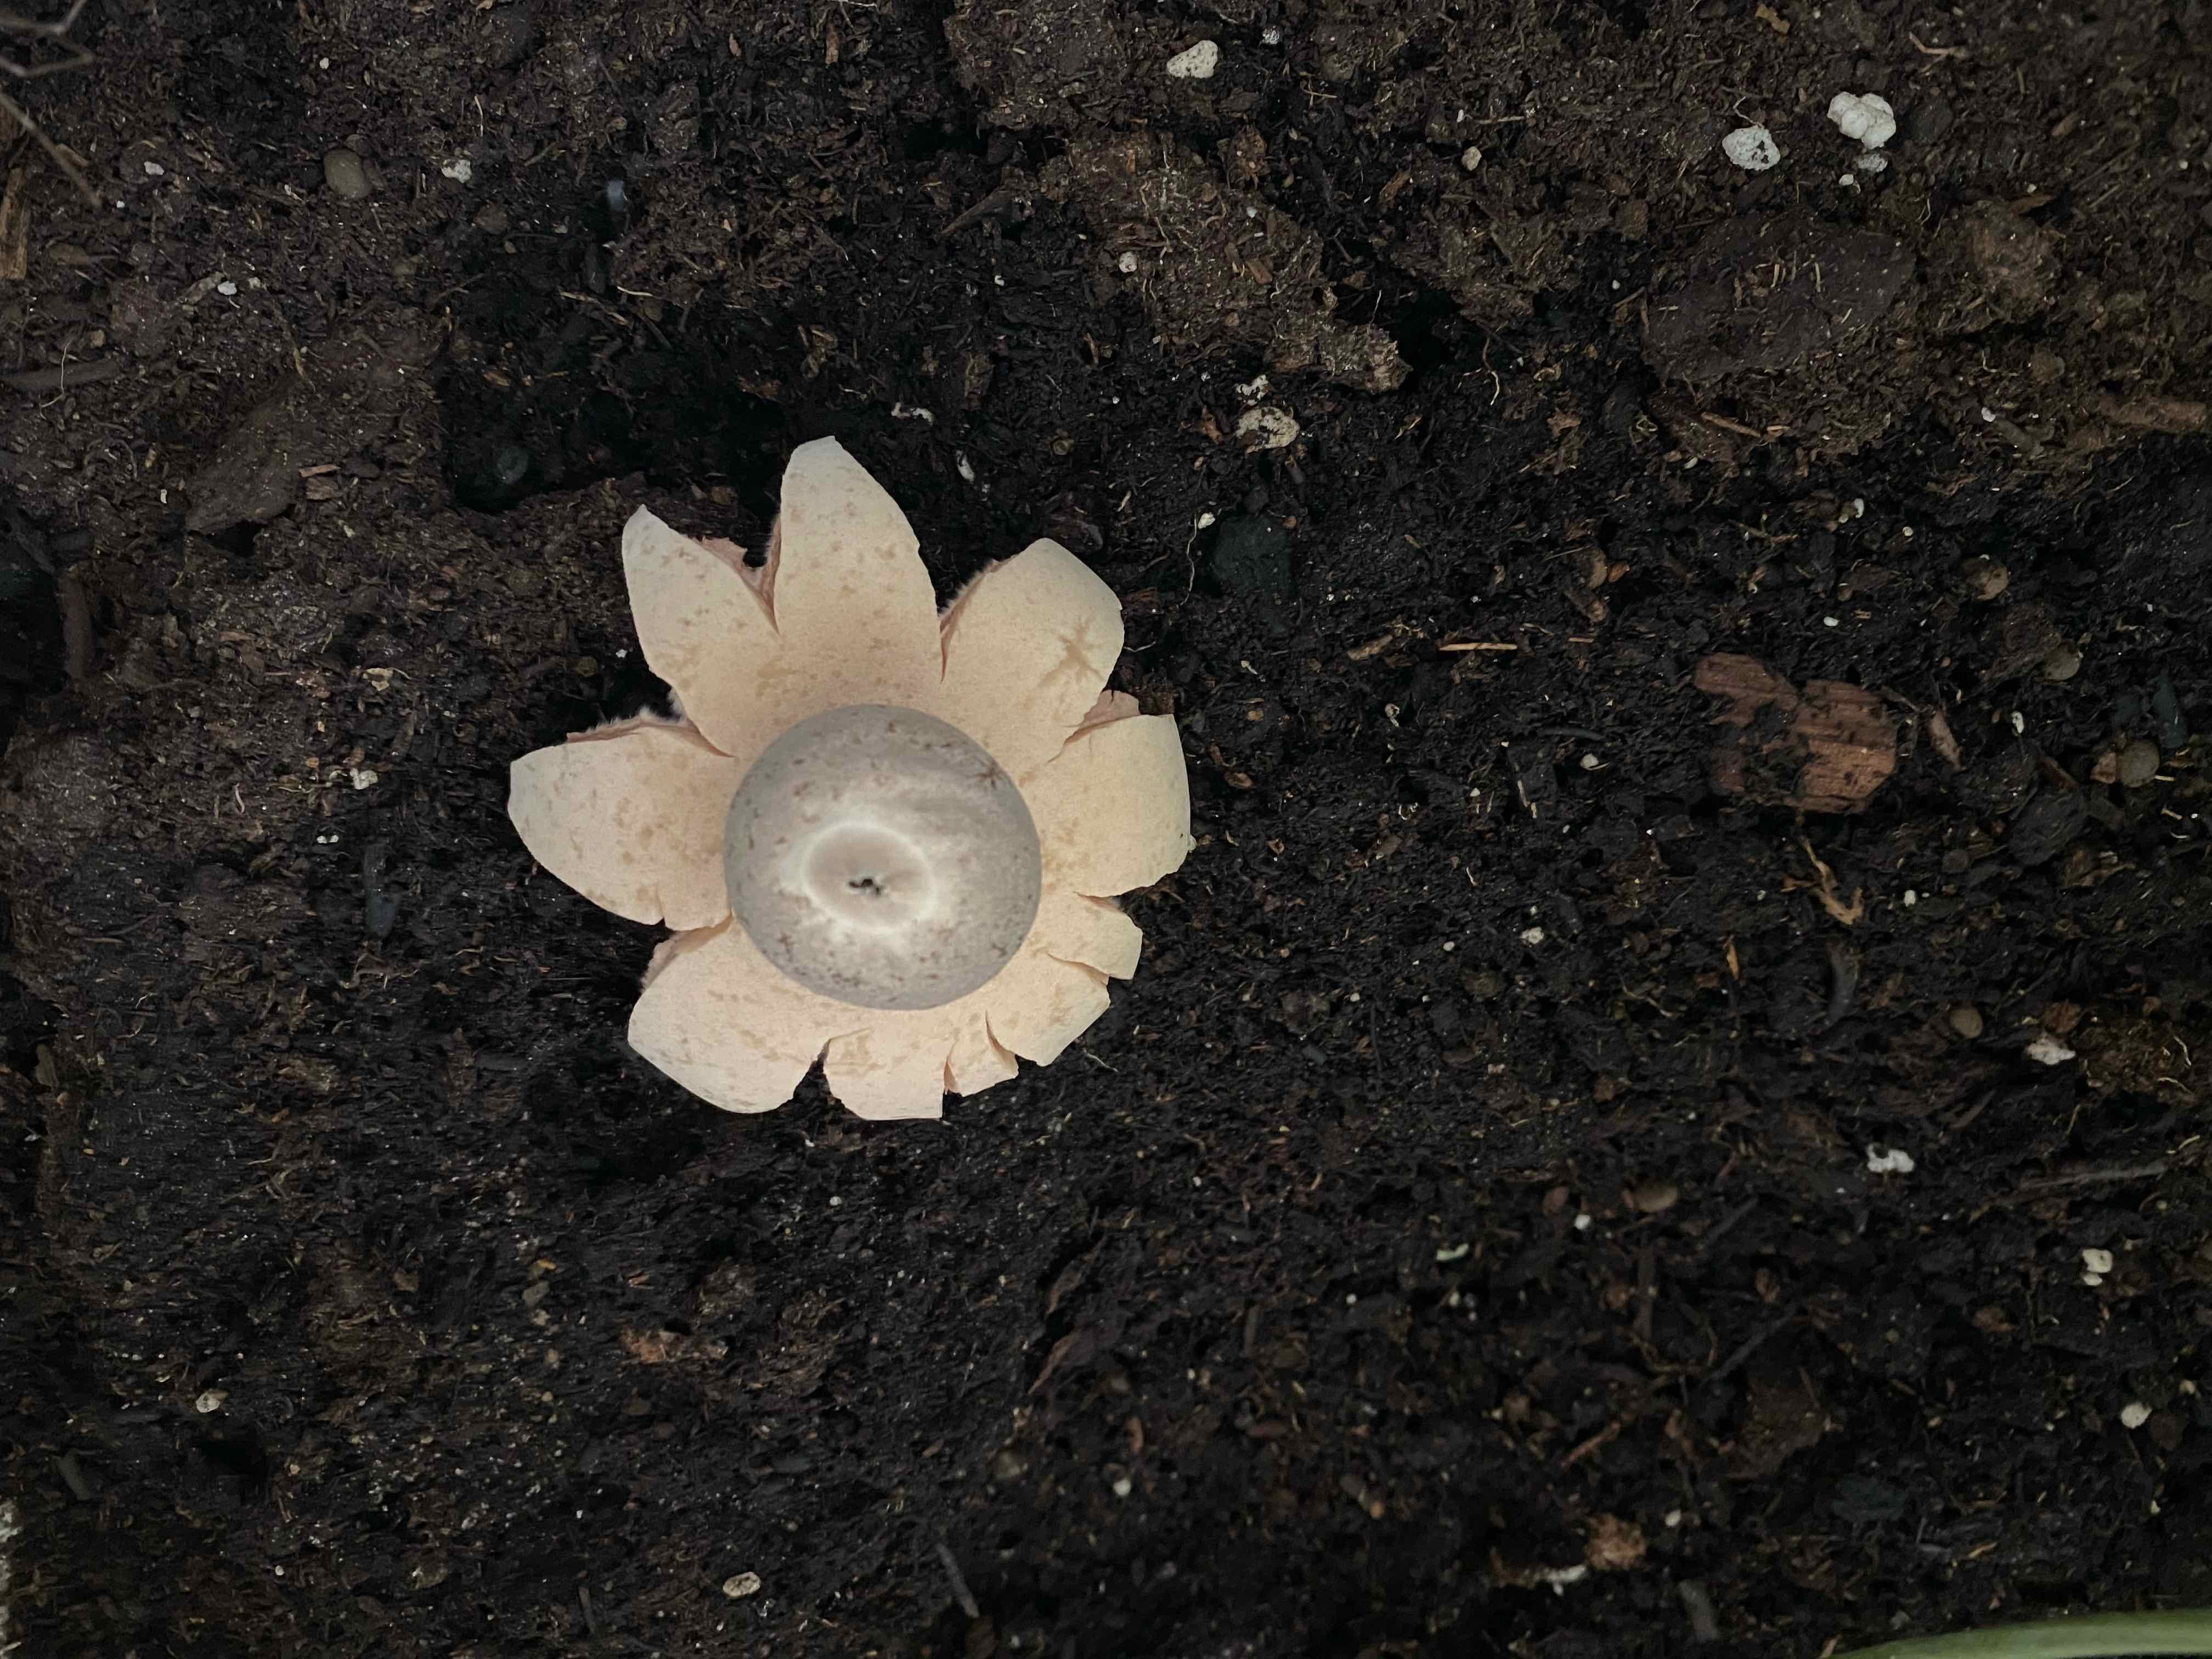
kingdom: Fungi
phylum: Basidiomycota
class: Agaricomycetes
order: Geastrales
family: Geastraceae
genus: Geastrum
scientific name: Geastrum
